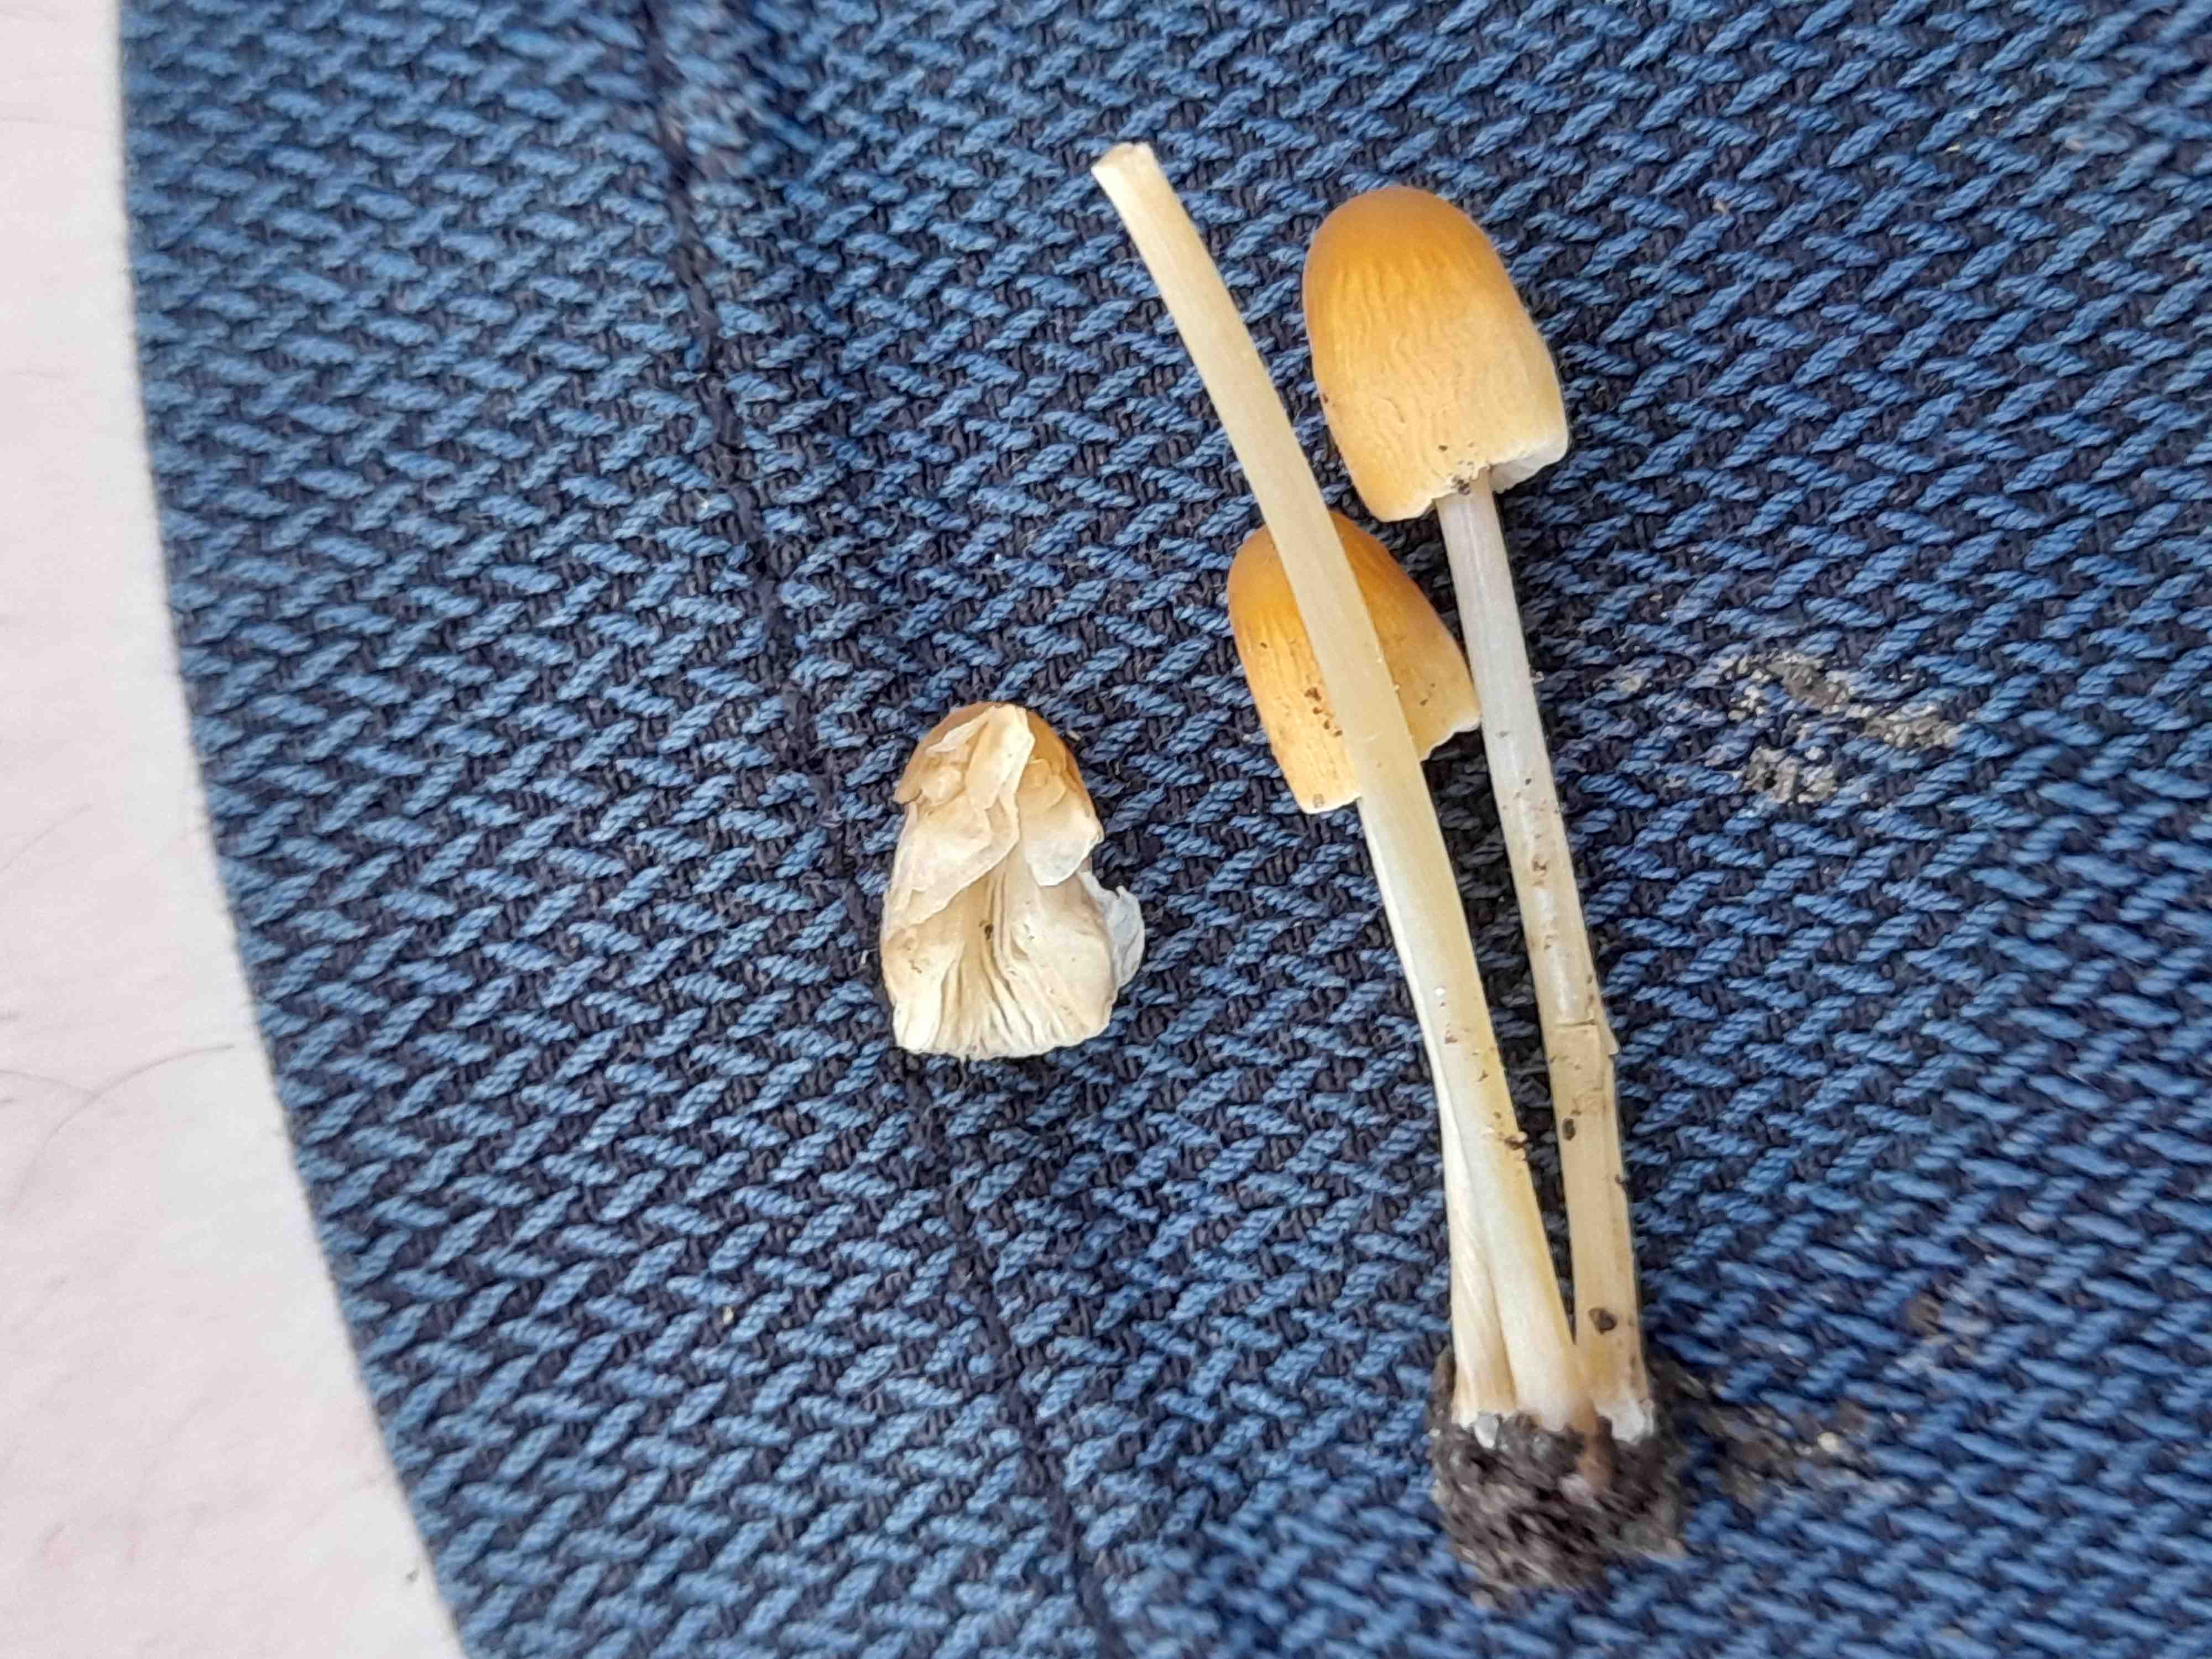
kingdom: Fungi
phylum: Basidiomycota
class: Agaricomycetes
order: Agaricales
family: Psathyrellaceae
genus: Parasola
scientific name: Parasola
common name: hjulhat
